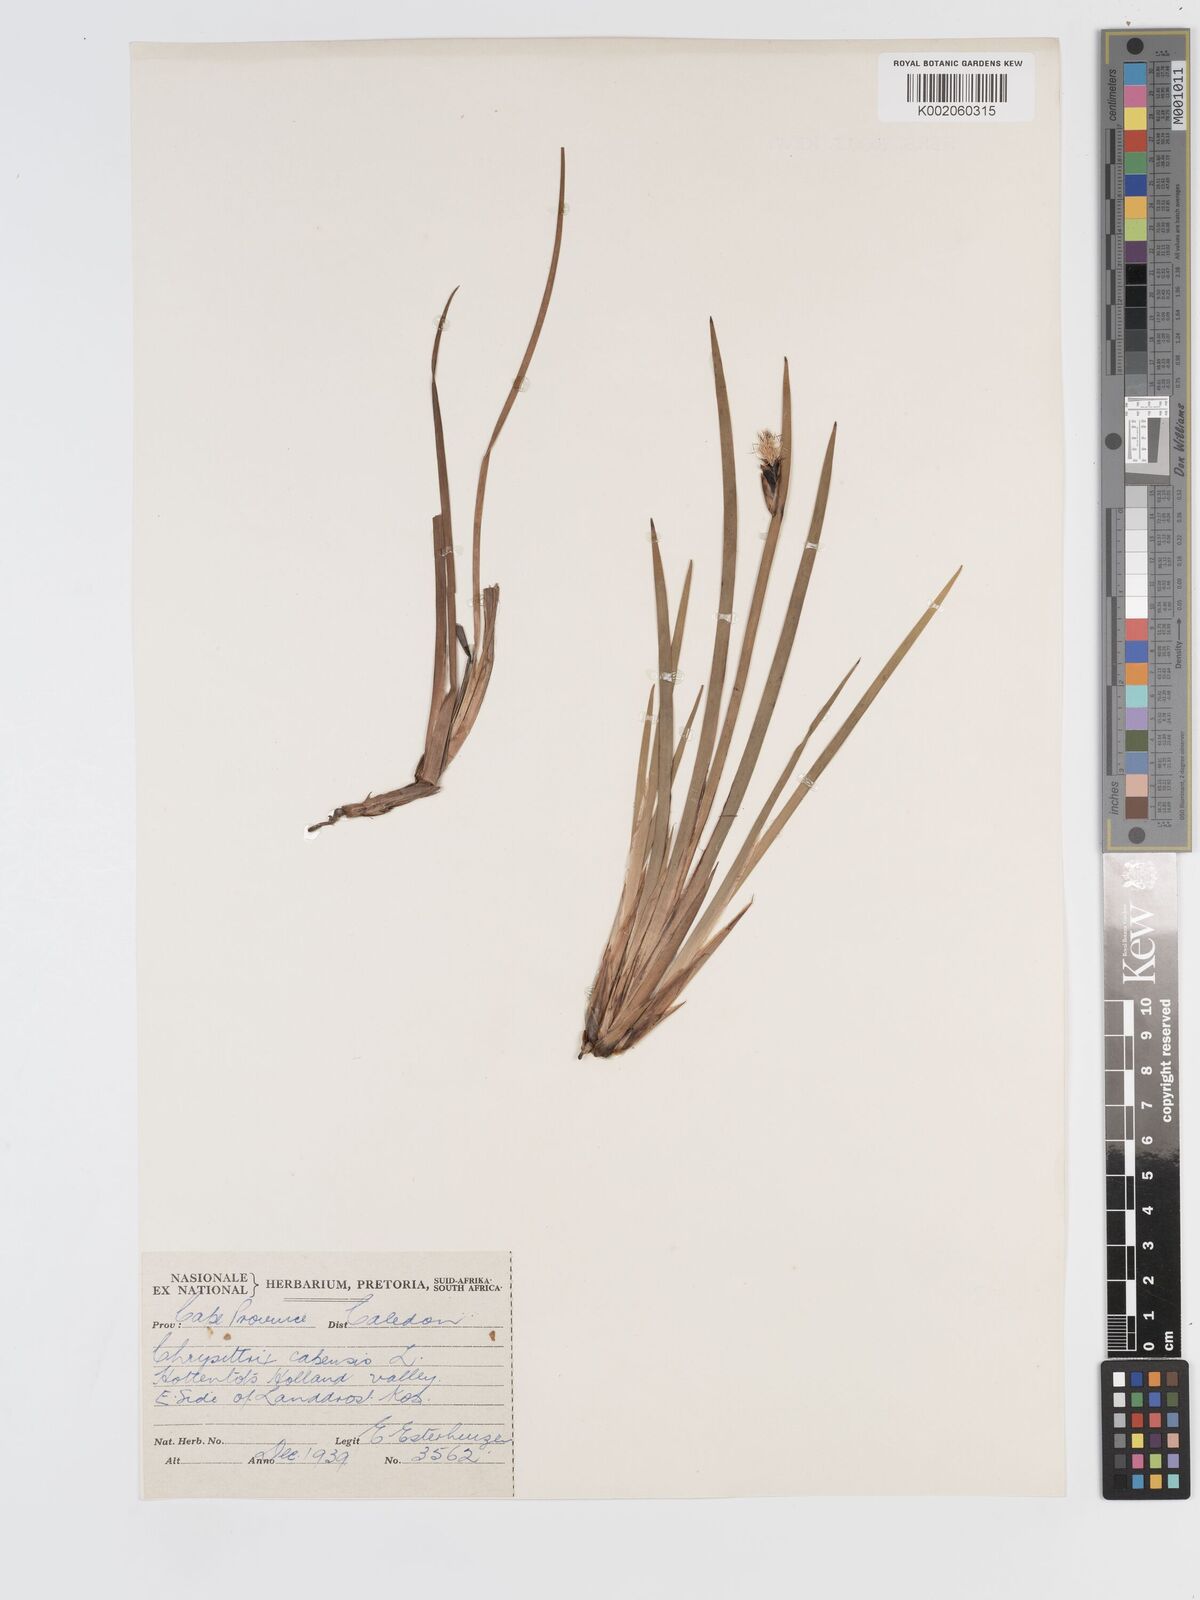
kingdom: Plantae
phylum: Tracheophyta
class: Liliopsida
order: Poales
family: Cyperaceae
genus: Chrysitrix
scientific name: Chrysitrix capensis
